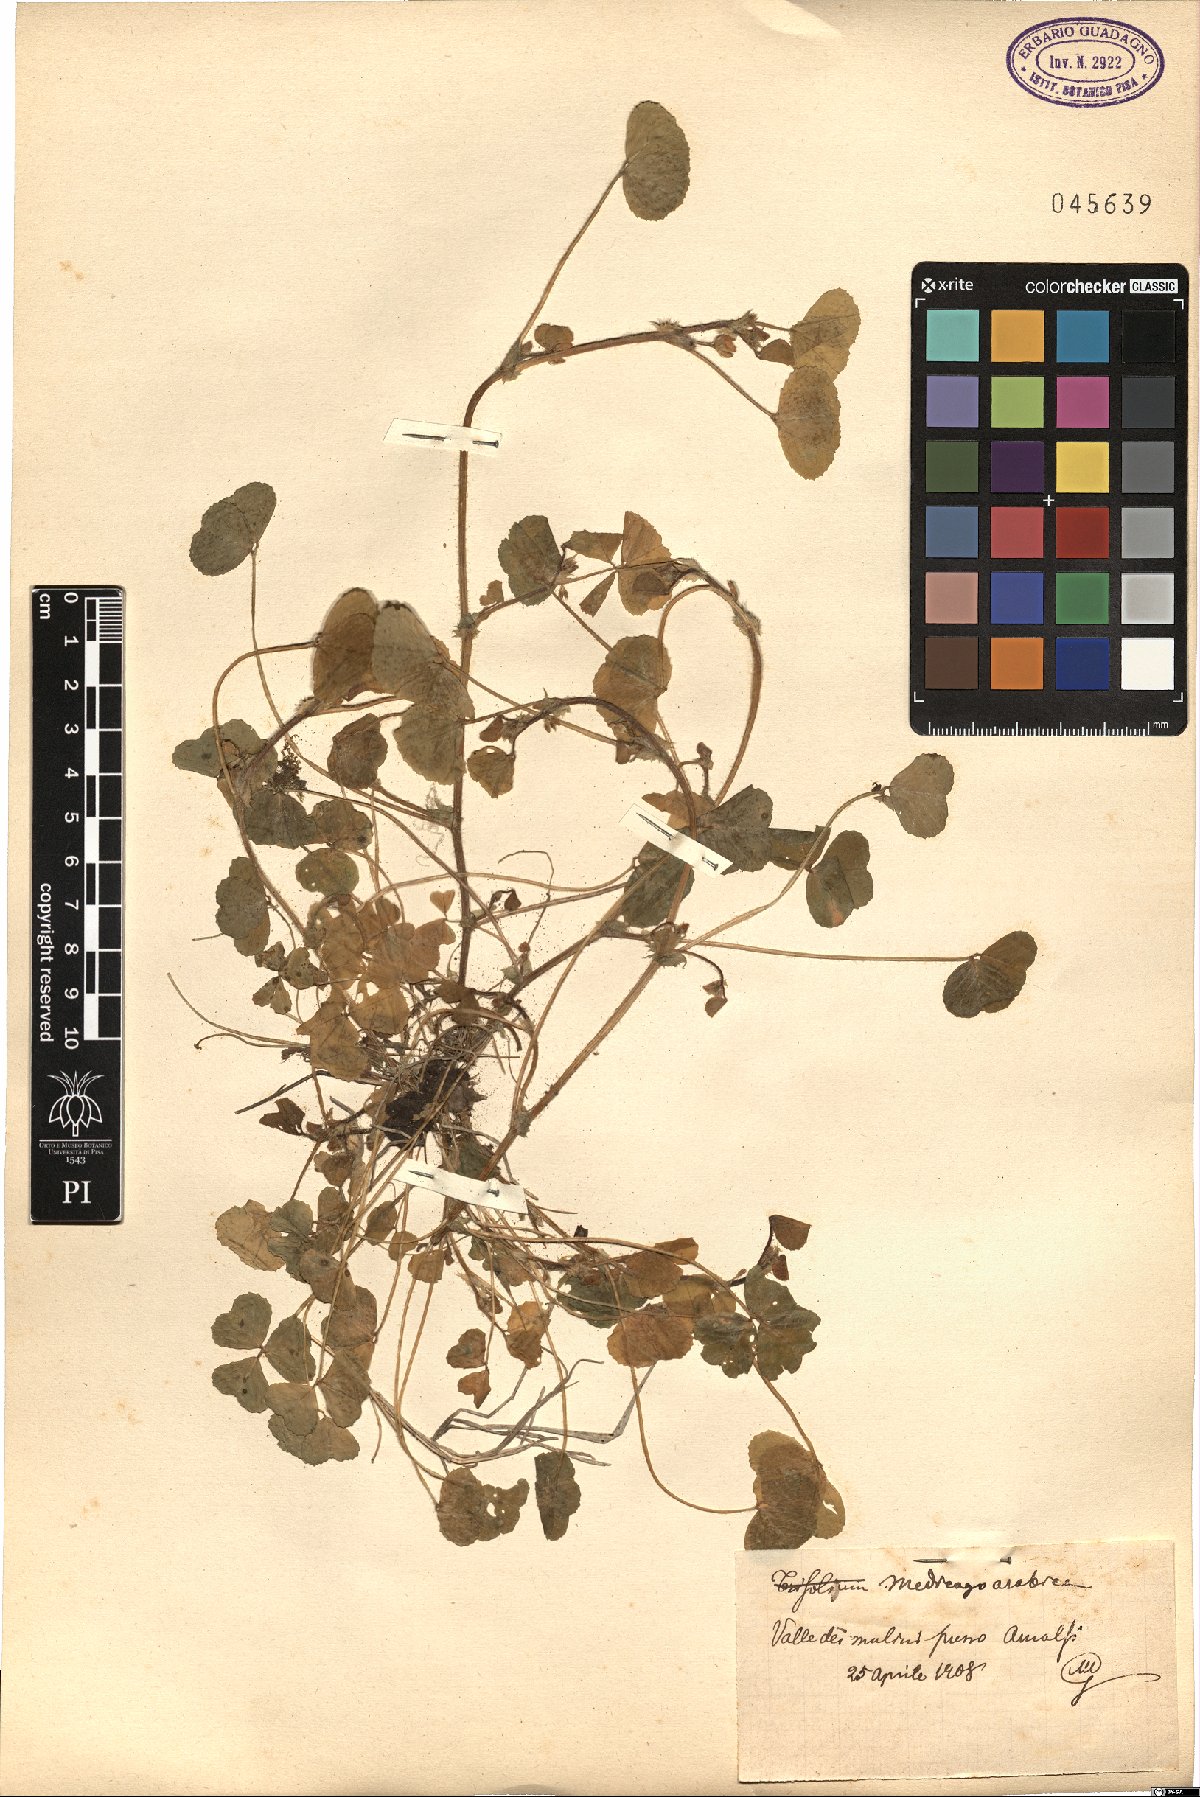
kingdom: Plantae
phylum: Tracheophyta
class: Magnoliopsida
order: Fabales
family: Fabaceae
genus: Medicago
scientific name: Medicago arabica
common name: Spotted medick
